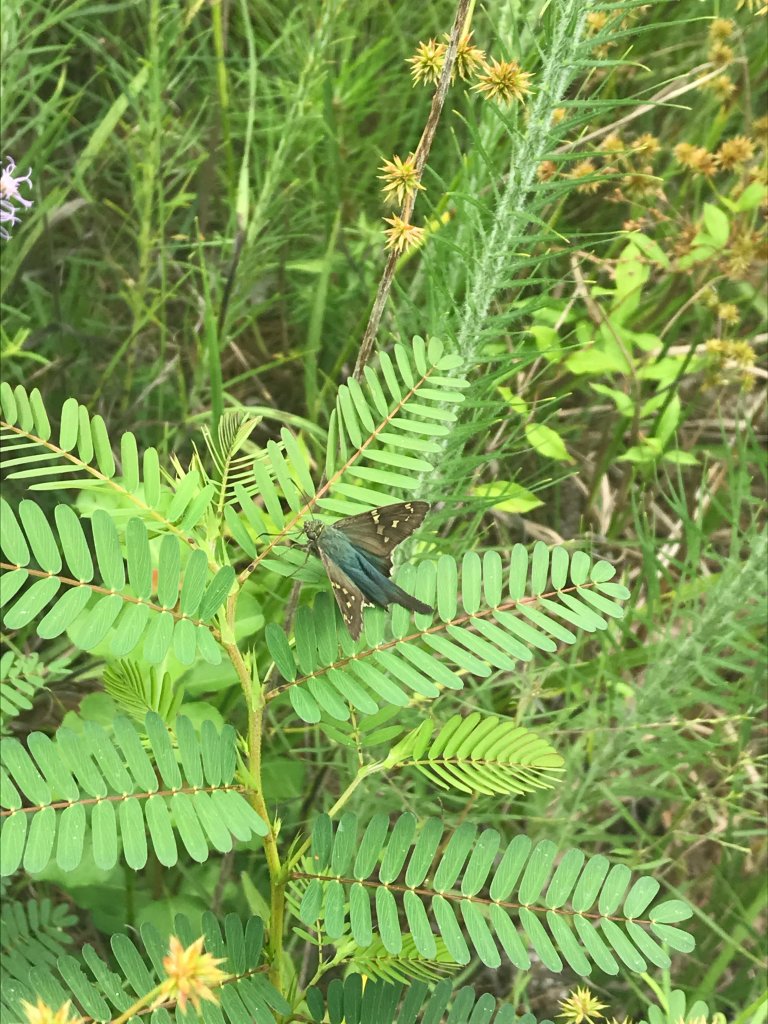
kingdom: Animalia
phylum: Arthropoda
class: Insecta
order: Lepidoptera
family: Hesperiidae
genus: Urbanus
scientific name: Urbanus proteus
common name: Long-tailed Skipper
